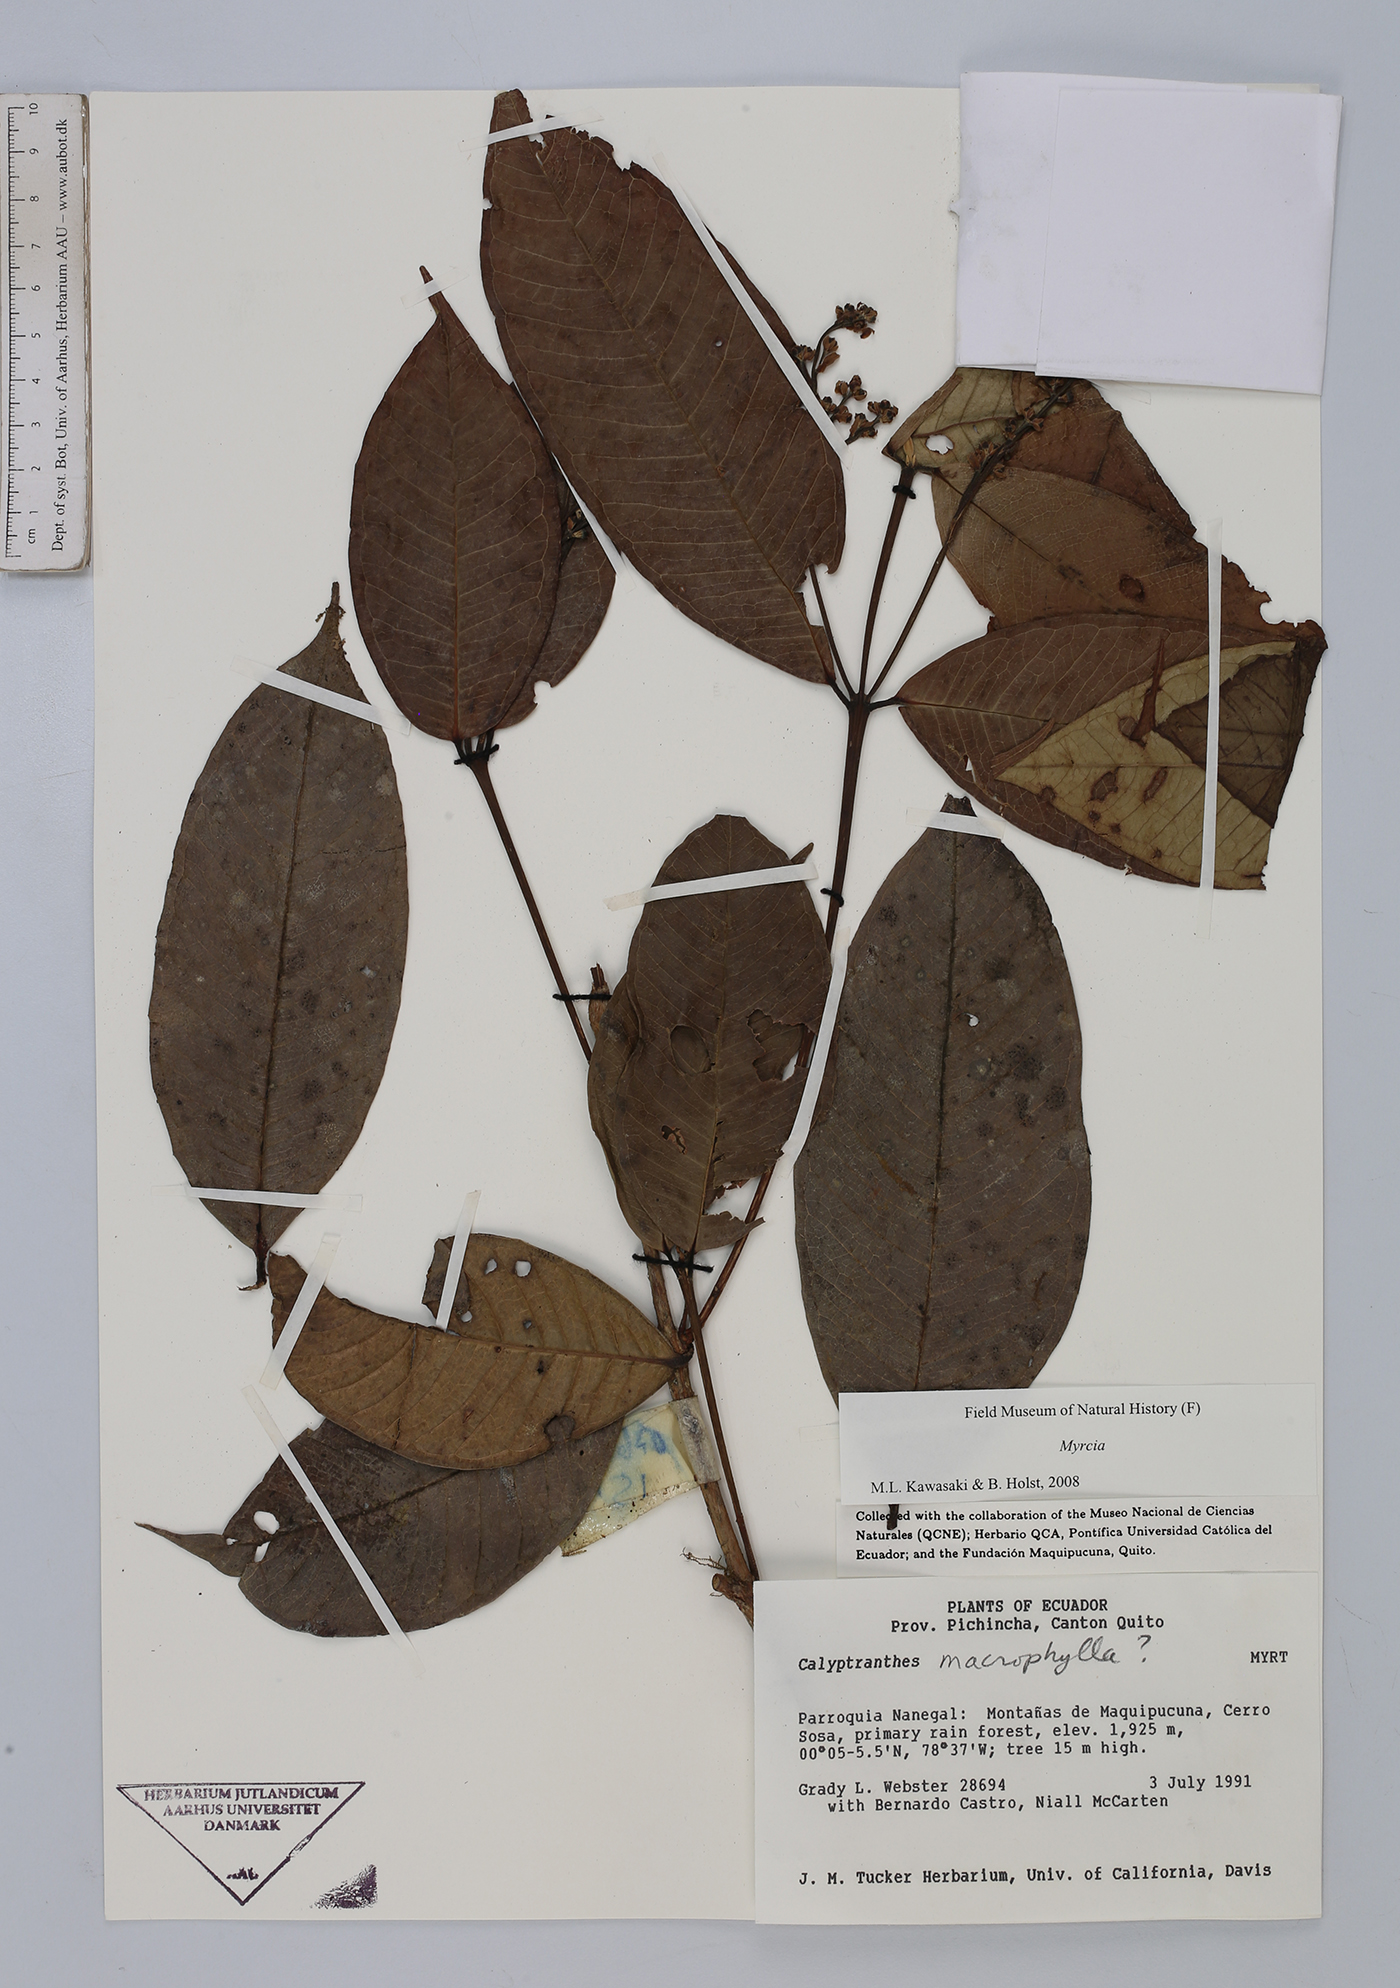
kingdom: Plantae
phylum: Tracheophyta
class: Magnoliopsida
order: Myrtales
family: Myrtaceae
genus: Myrcia
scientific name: Myrcia
